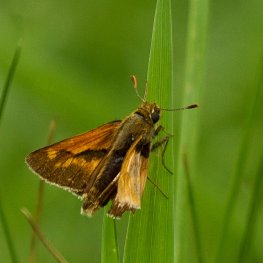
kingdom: Animalia
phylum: Arthropoda
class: Insecta
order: Lepidoptera
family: Hesperiidae
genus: Polites
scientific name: Polites
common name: Long Dash Skipper
